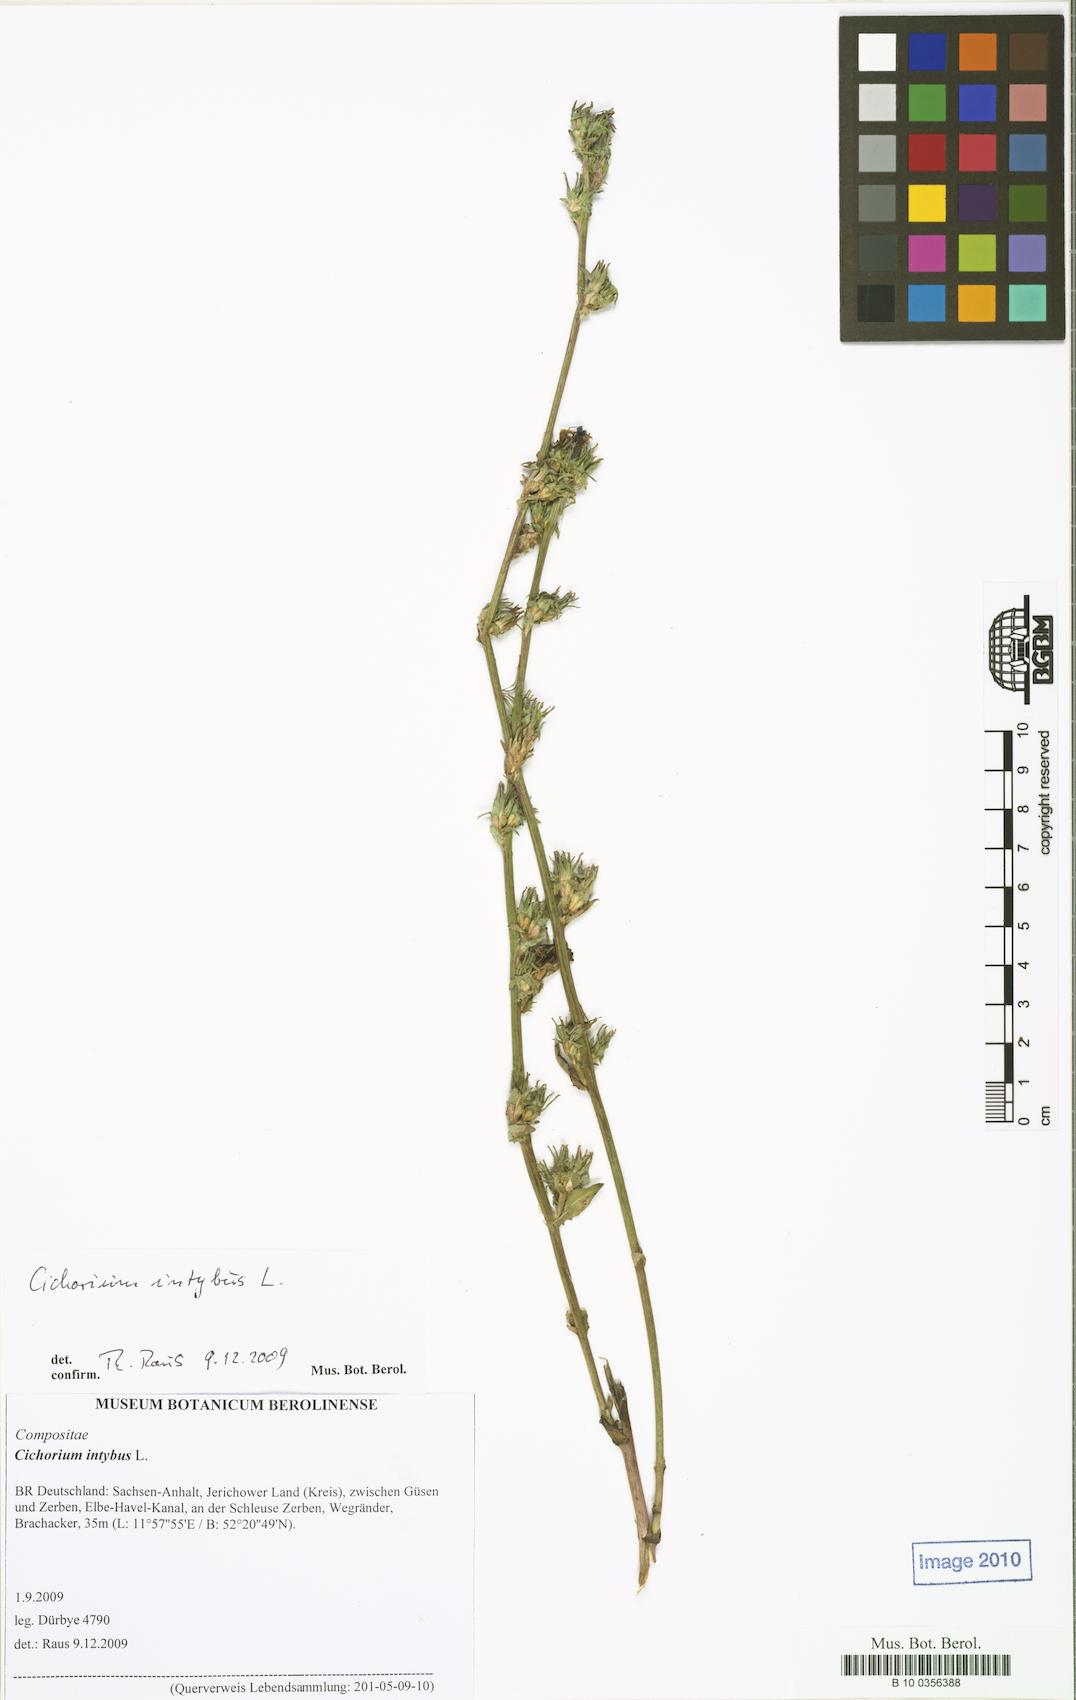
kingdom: Plantae
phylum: Tracheophyta
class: Magnoliopsida
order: Asterales
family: Asteraceae
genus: Cichorium
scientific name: Cichorium intybus
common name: Chicory
